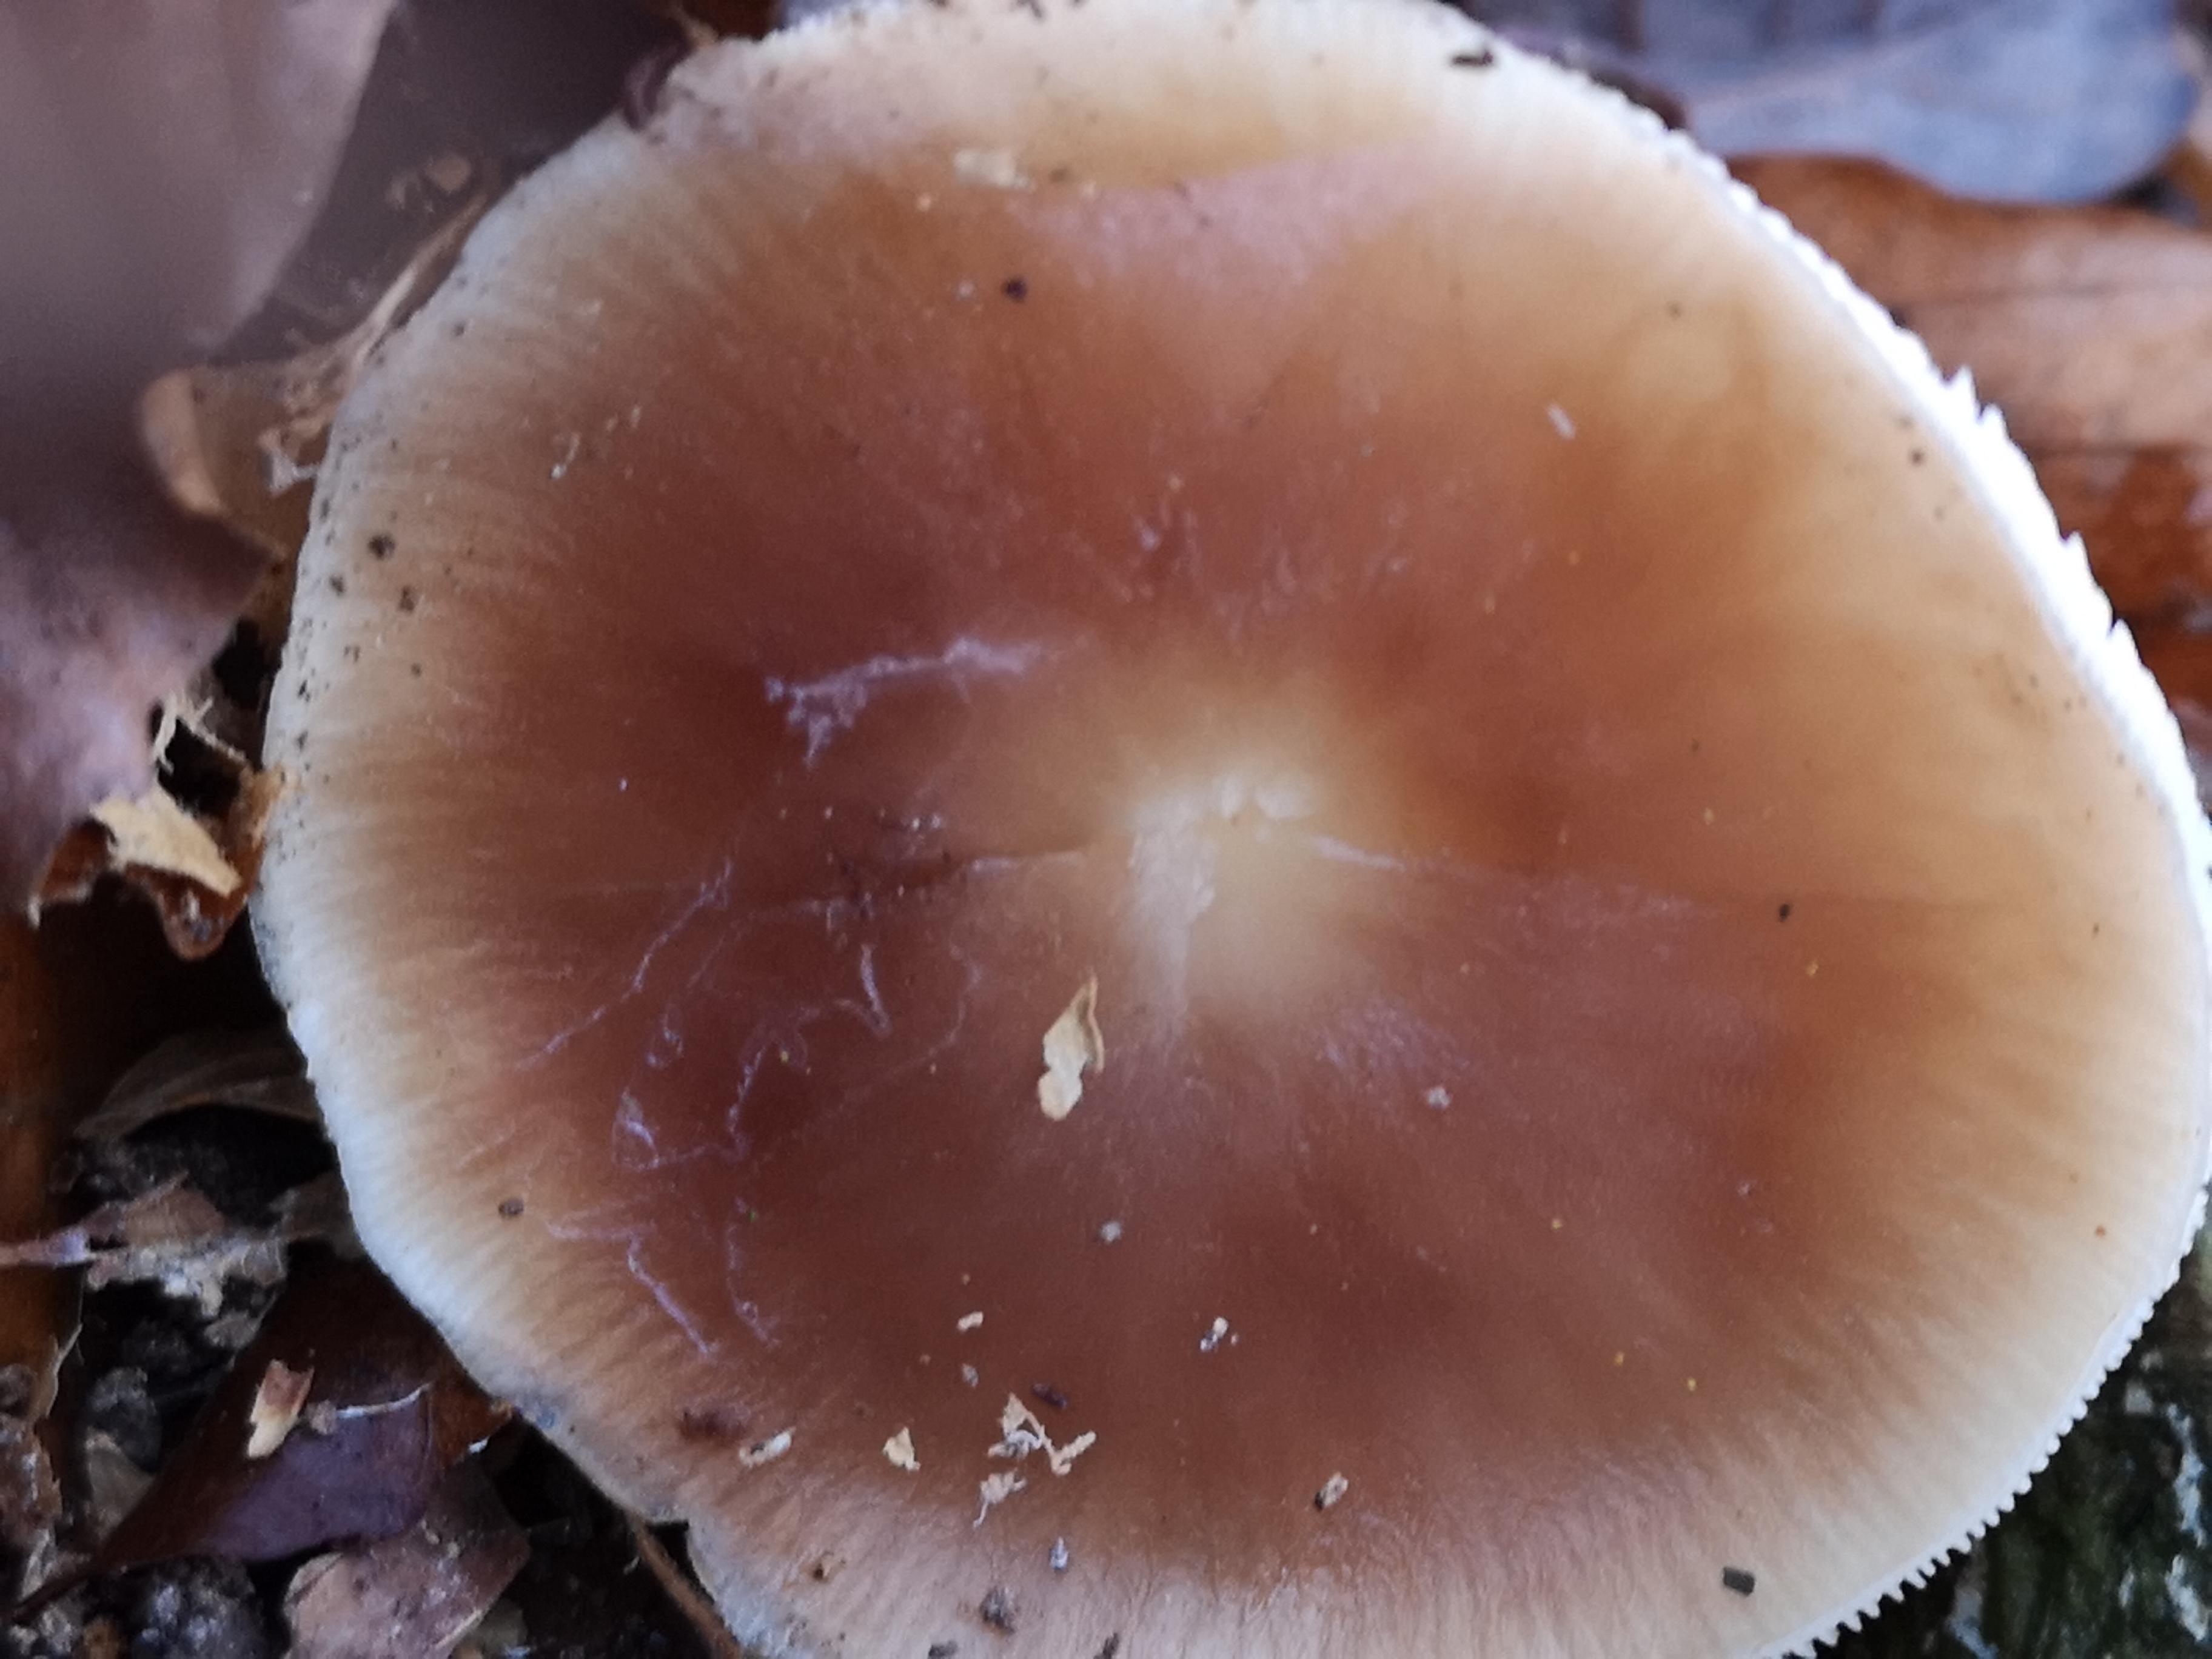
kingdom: Fungi
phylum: Basidiomycota
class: Agaricomycetes
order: Agaricales
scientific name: Agaricales
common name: champignonordenen
